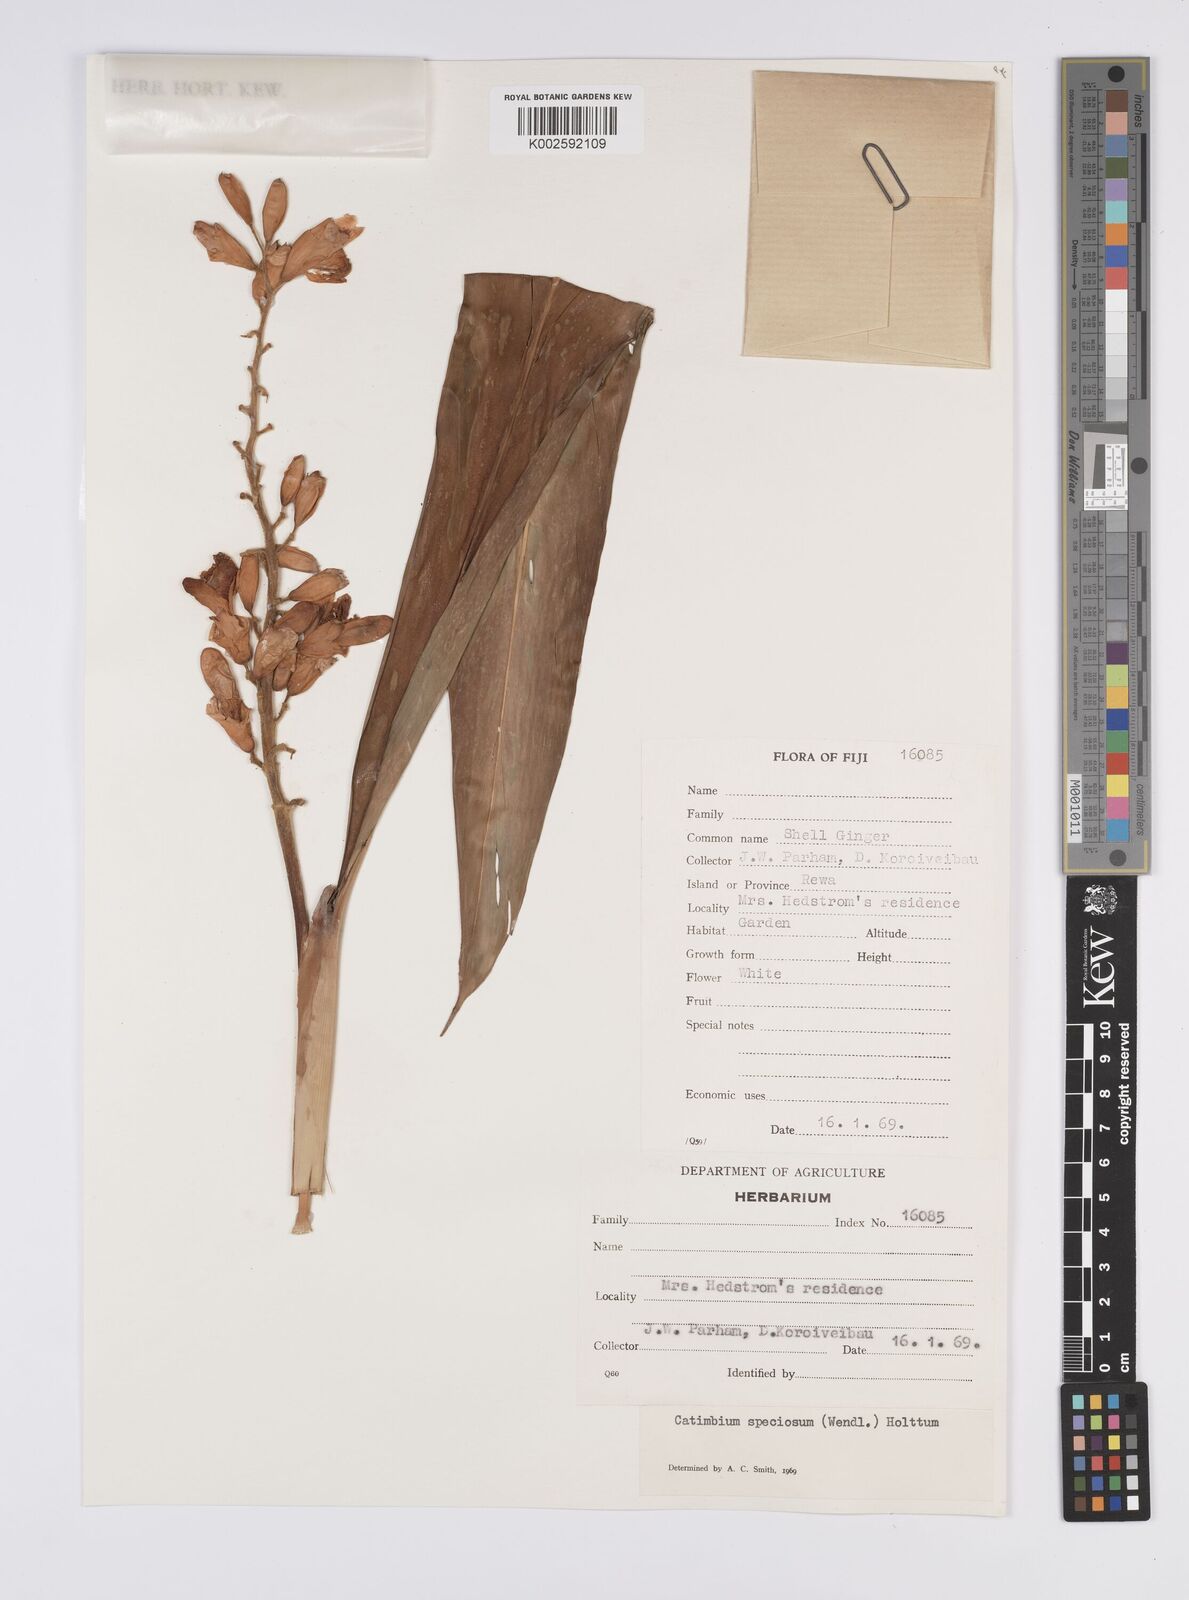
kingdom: Plantae
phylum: Tracheophyta
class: Liliopsida
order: Zingiberales
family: Zingiberaceae
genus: Alpinia
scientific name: Alpinia zerumbet
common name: Shellplant
